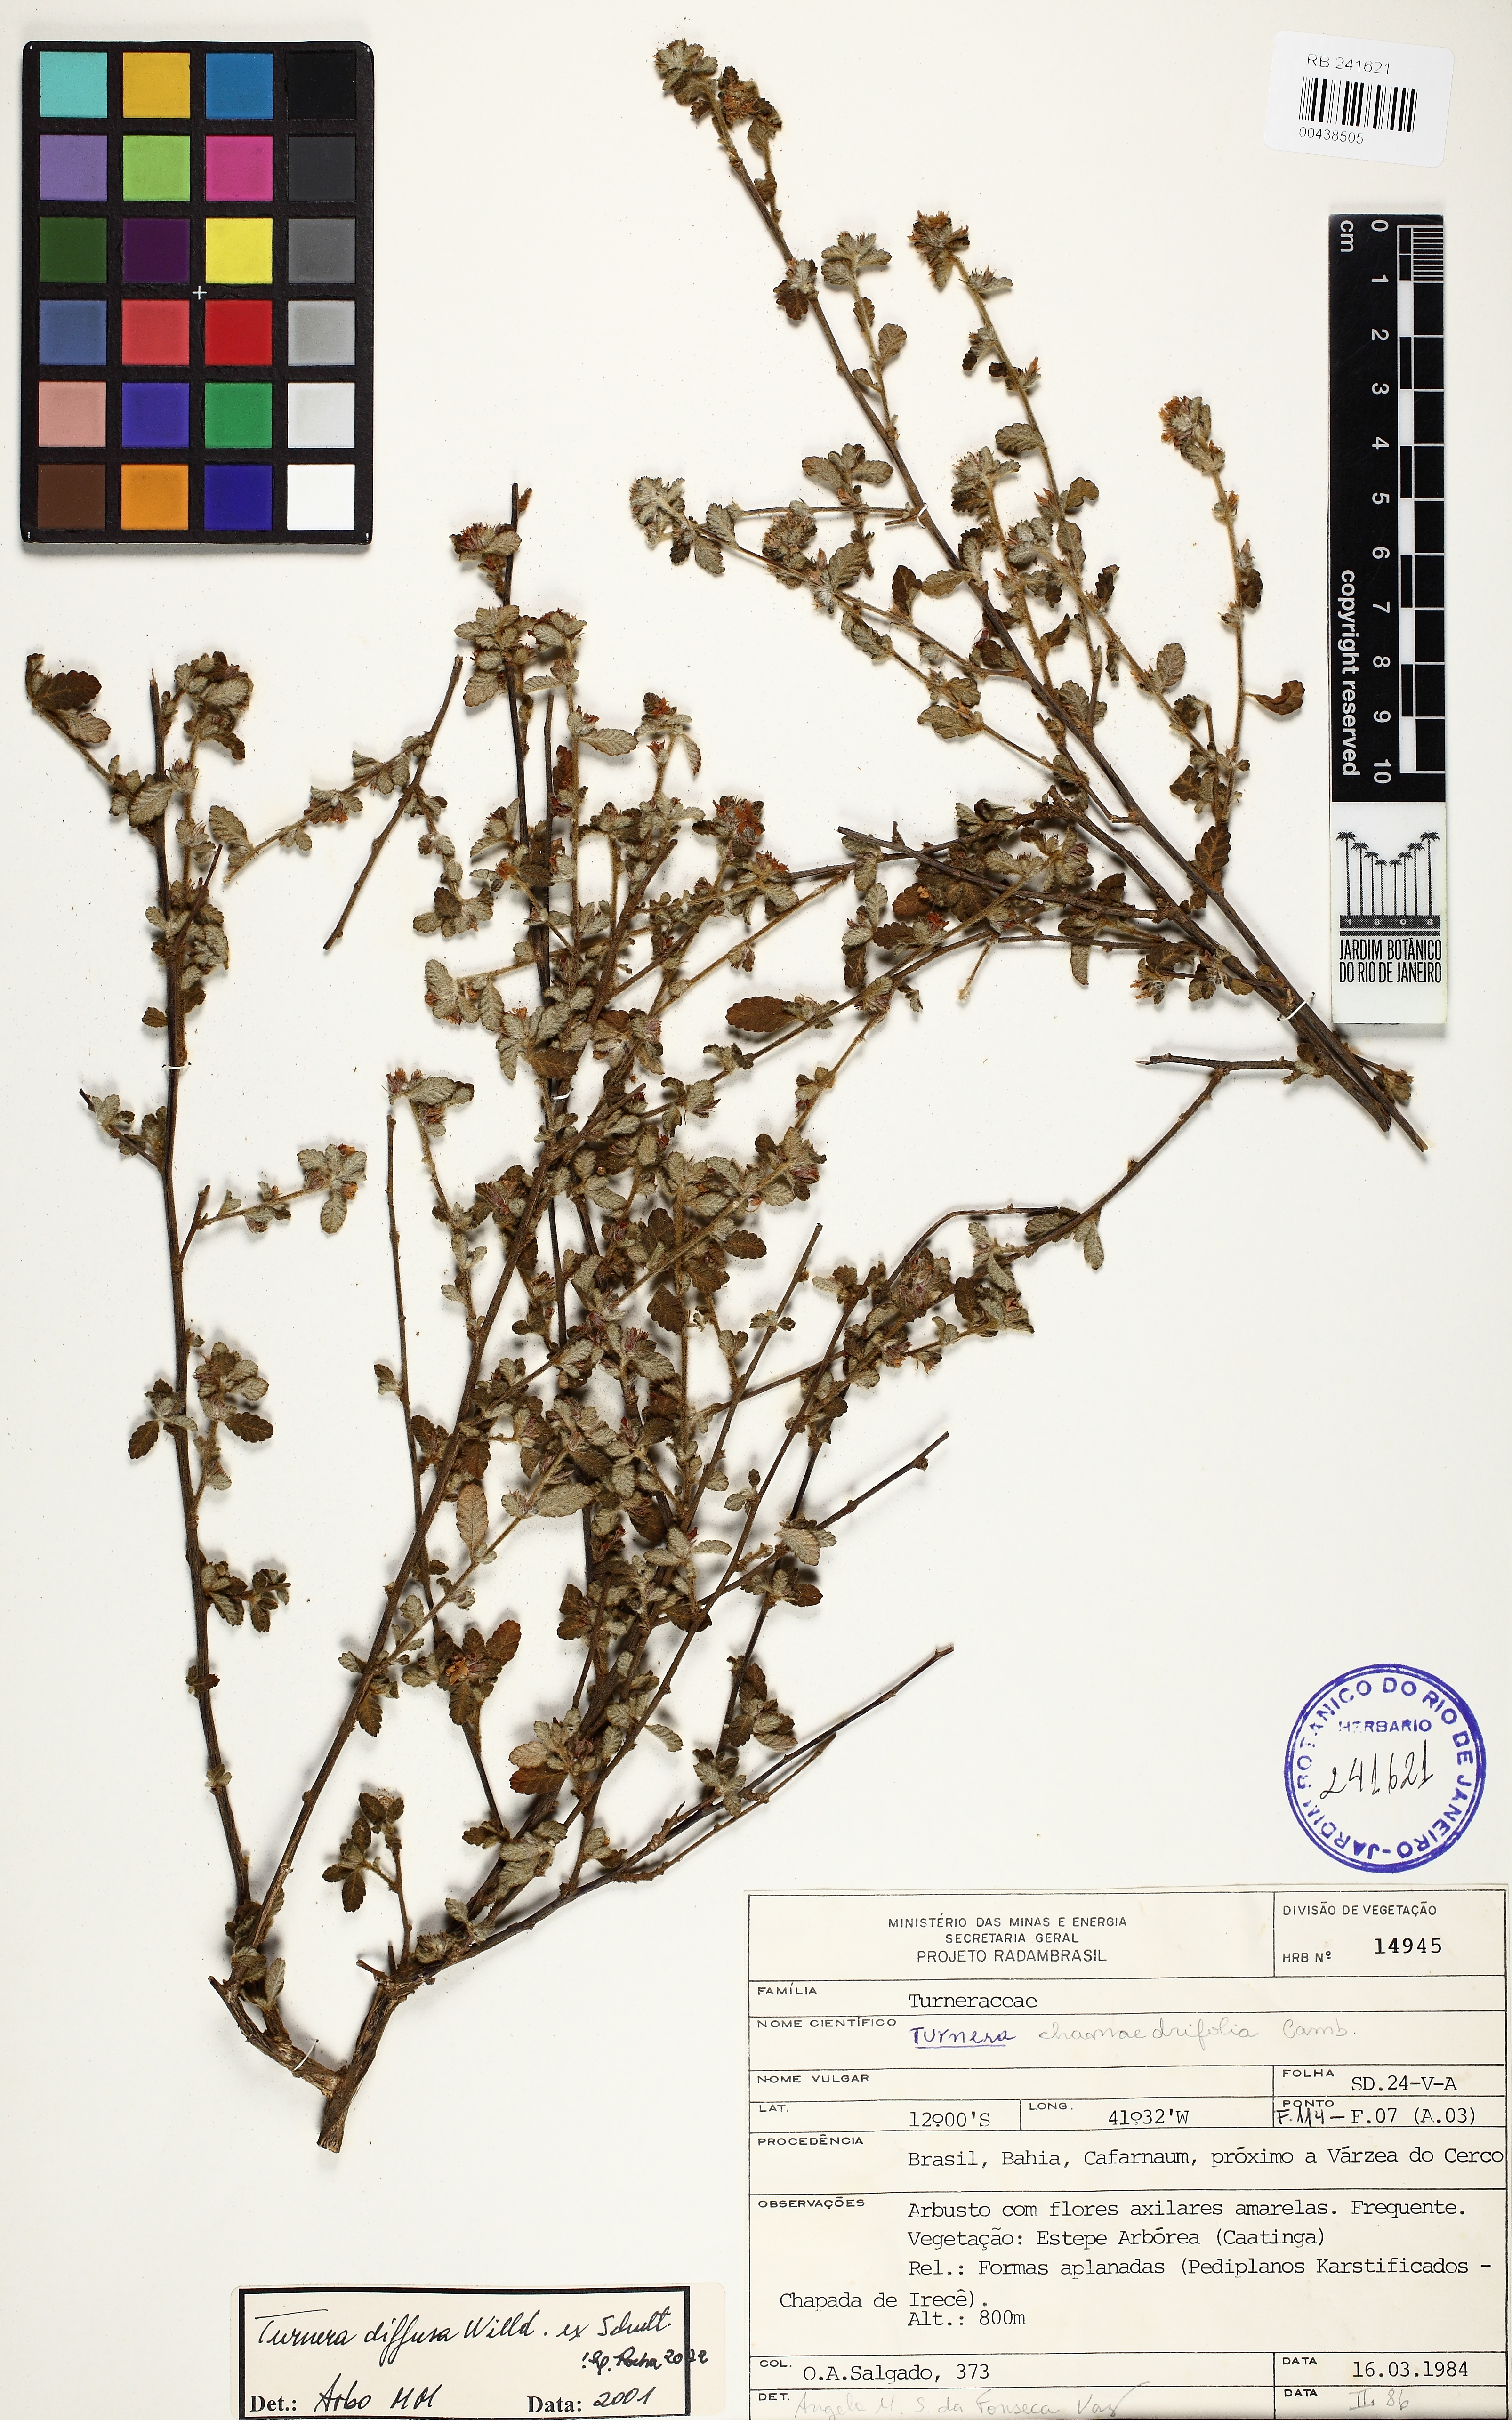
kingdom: Plantae
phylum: Tracheophyta
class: Magnoliopsida
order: Malpighiales
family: Turneraceae
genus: Turnera
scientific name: Turnera diffusa
